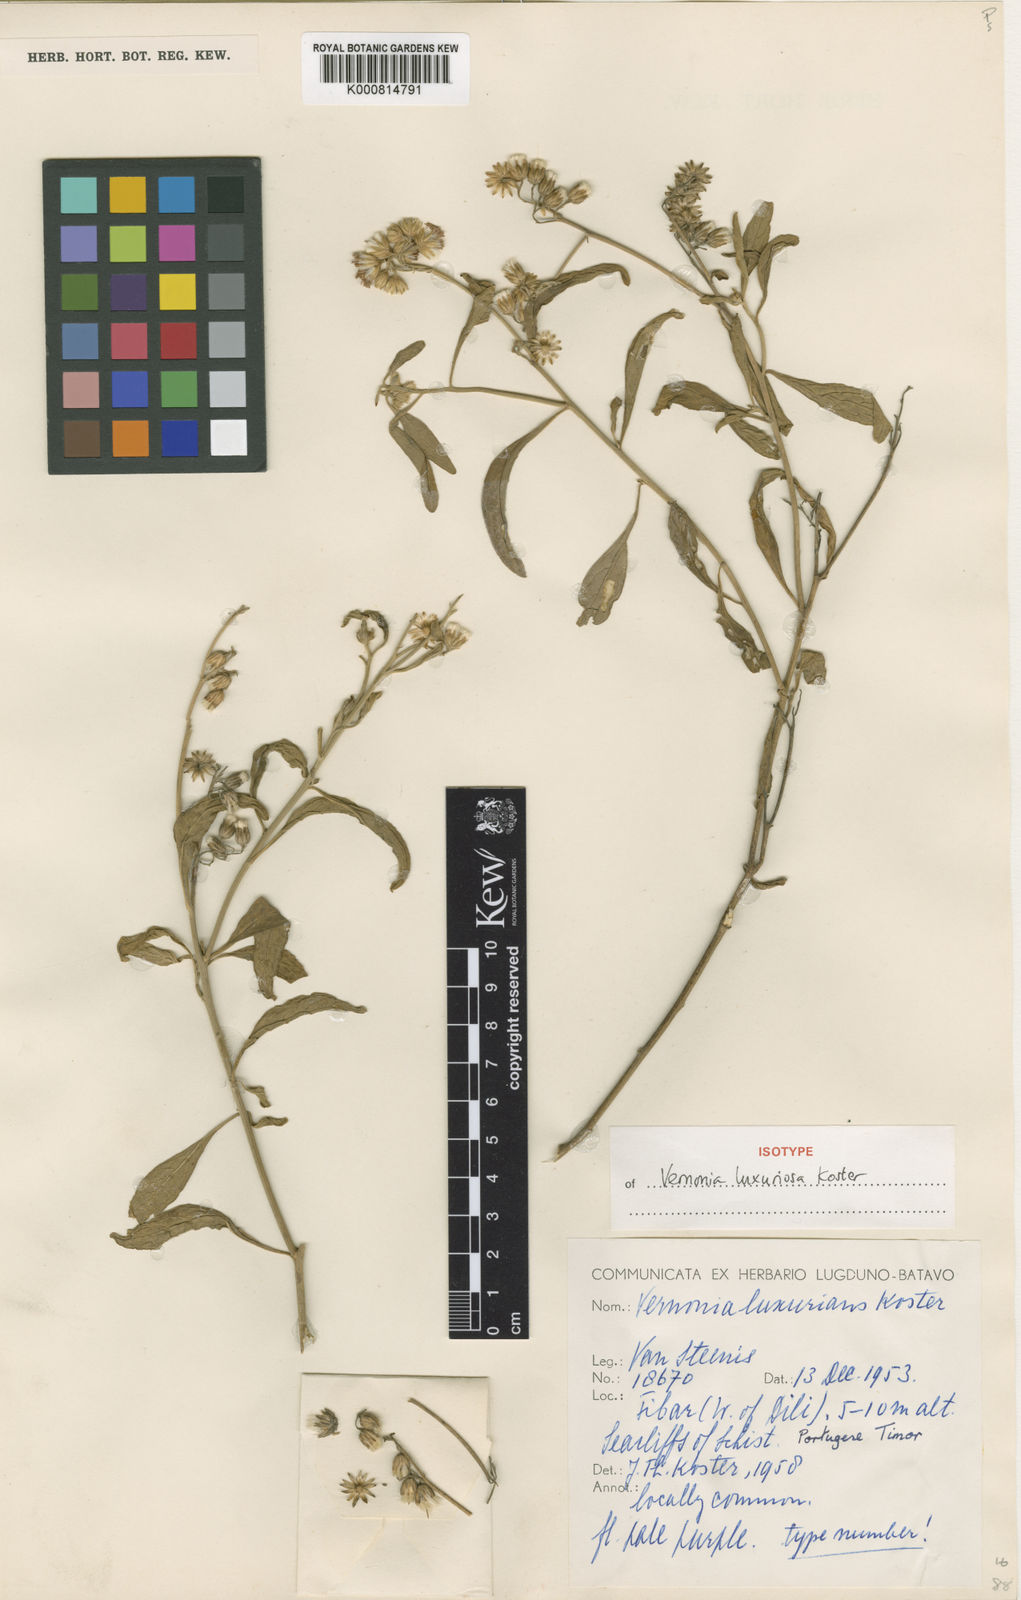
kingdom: Plantae
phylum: Tracheophyta
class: Magnoliopsida
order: Asterales
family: Asteraceae
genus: Vernonia
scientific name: Vernonia luxuriosa
